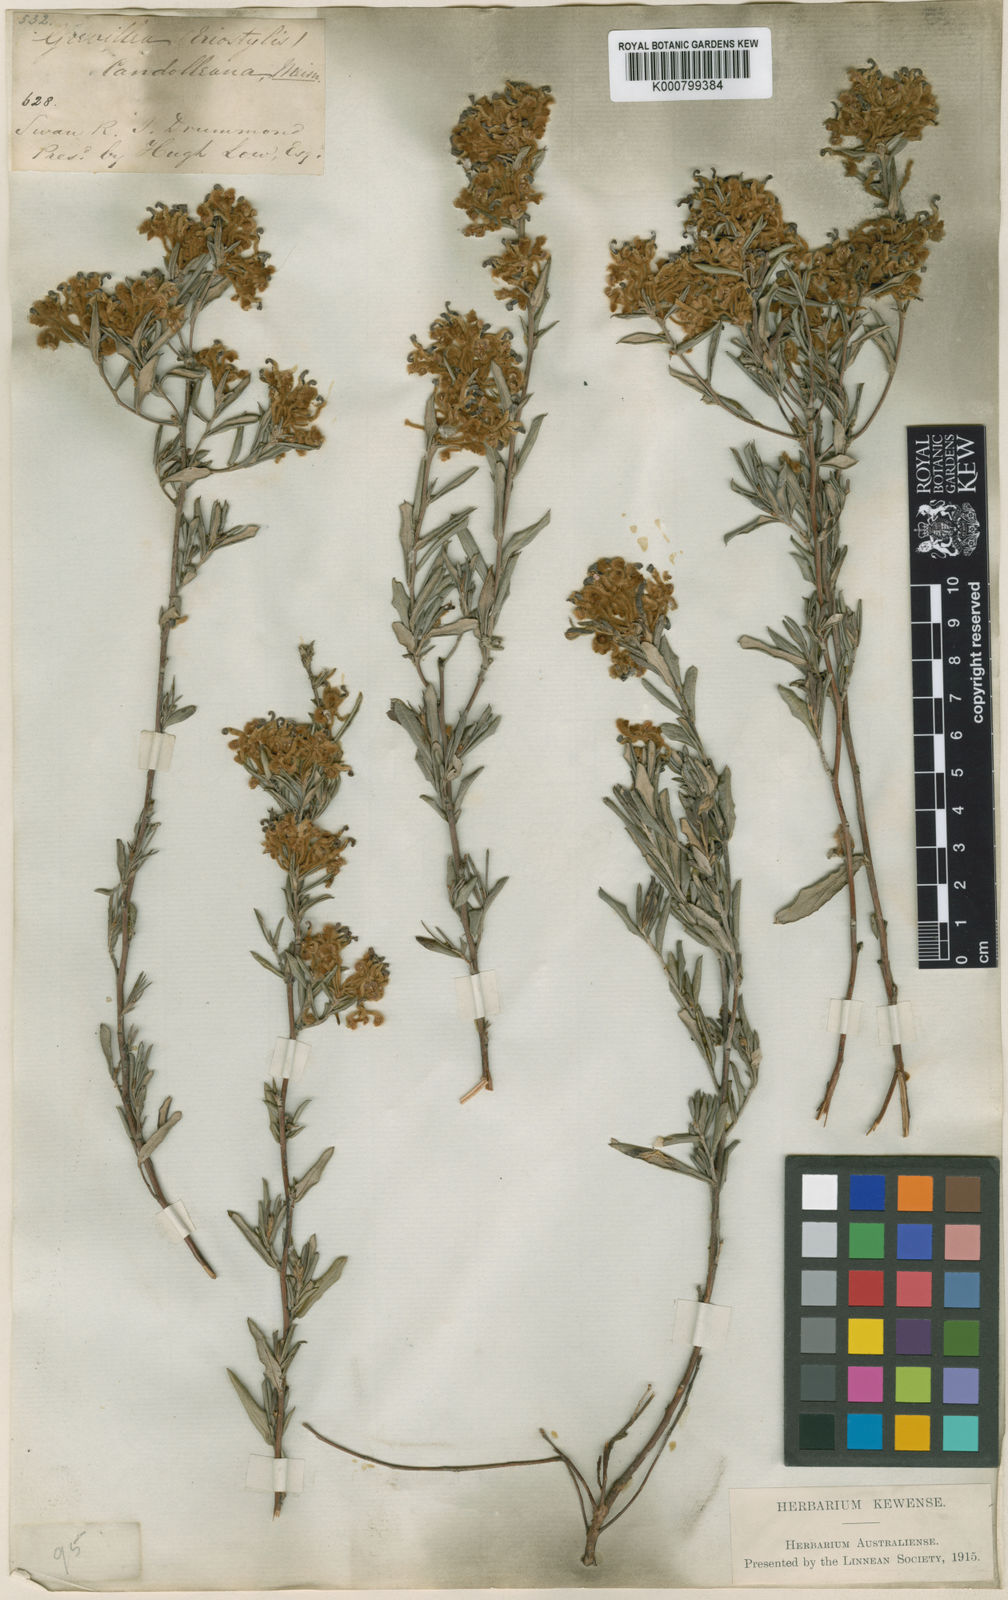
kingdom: Plantae
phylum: Tracheophyta
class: Magnoliopsida
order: Proteales
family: Proteaceae
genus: Grevillea
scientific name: Grevillea candolleana
